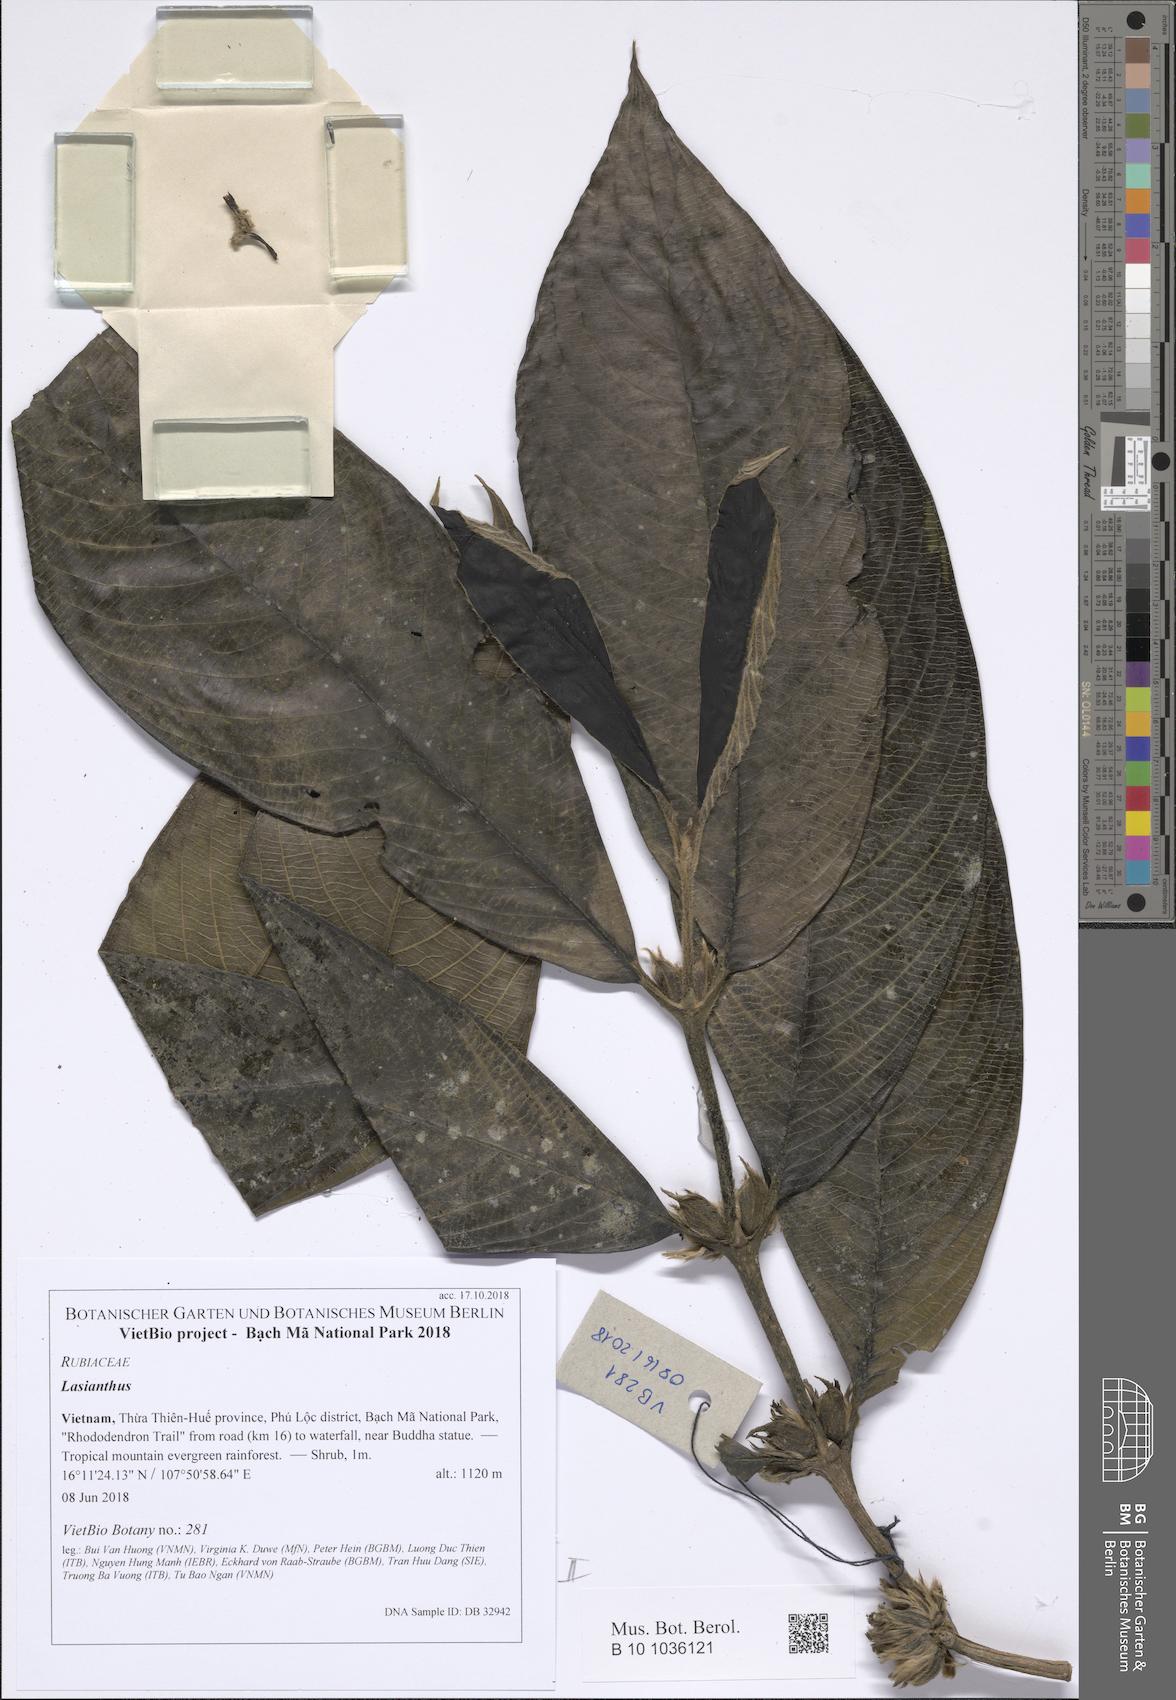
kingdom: Plantae
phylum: Tracheophyta
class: Magnoliopsida
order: Gentianales
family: Rubiaceae
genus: Lasianthus
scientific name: Lasianthus giganteus
